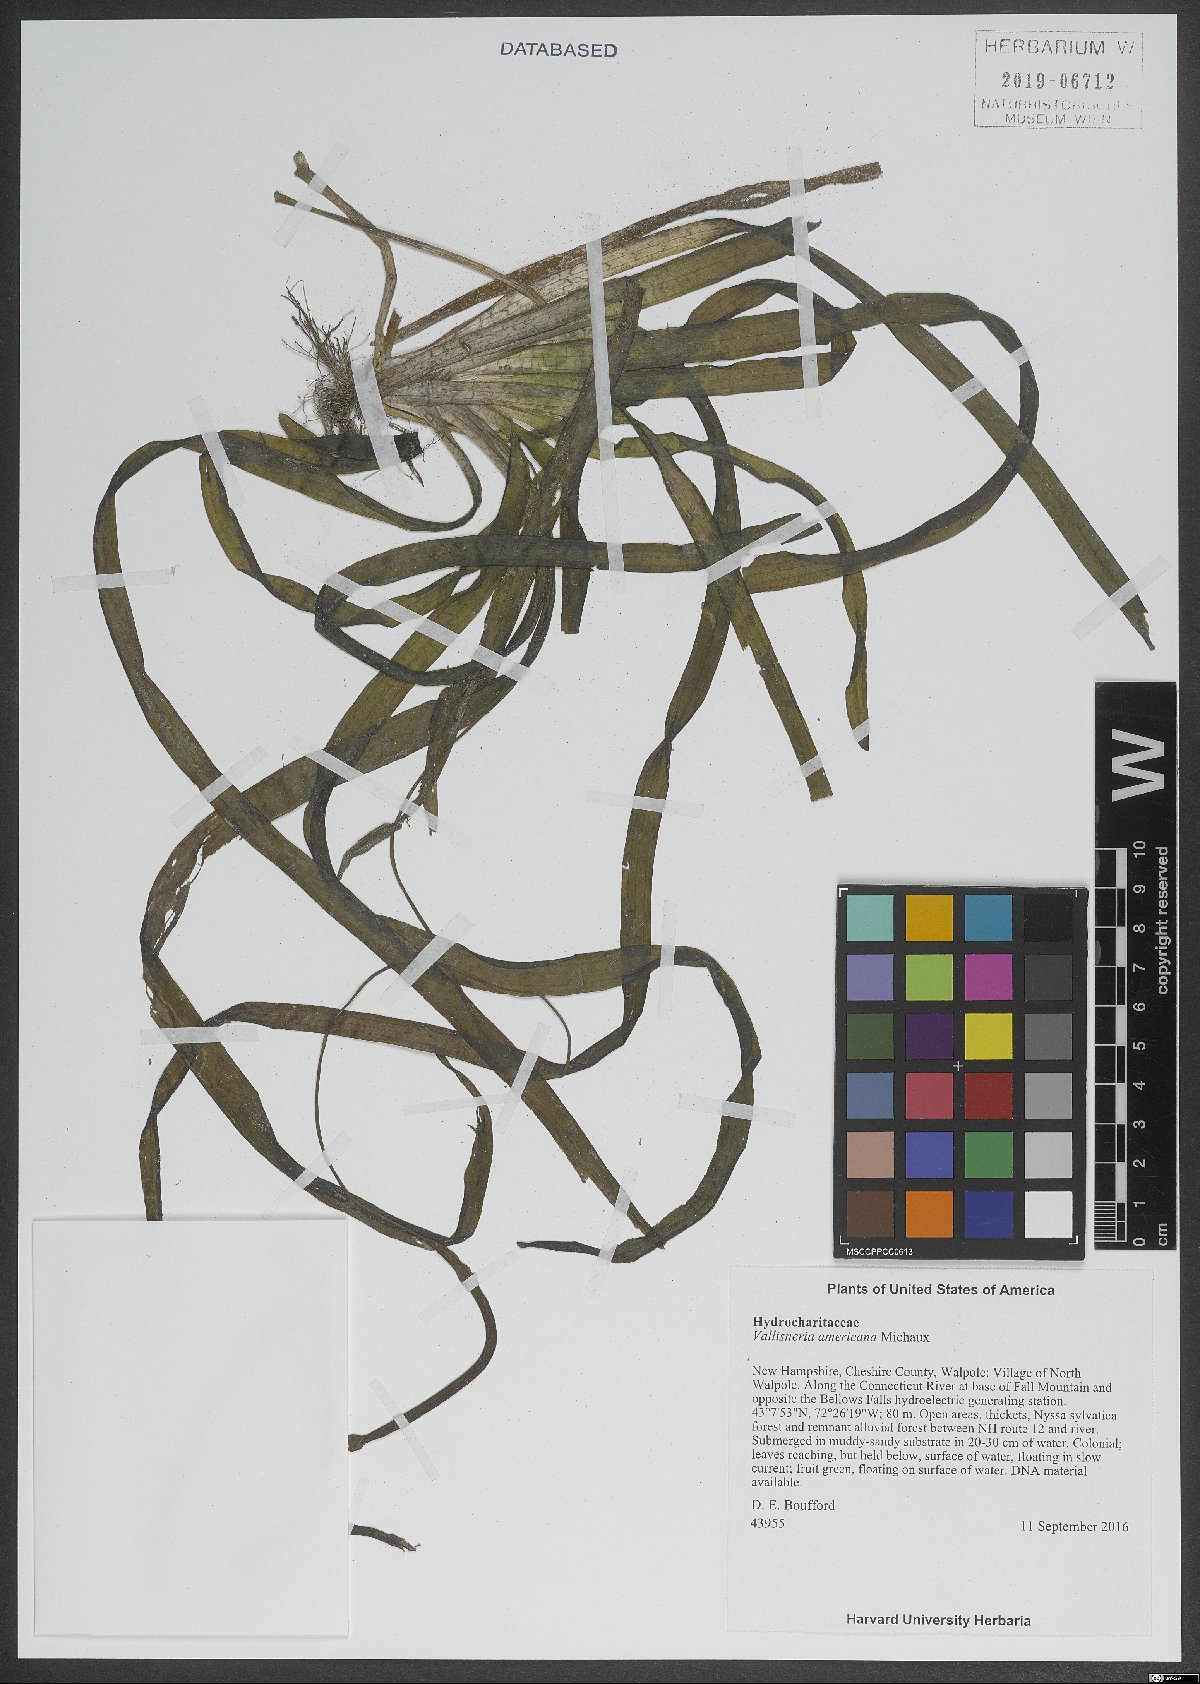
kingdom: Plantae
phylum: Tracheophyta
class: Liliopsida
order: Alismatales
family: Hydrocharitaceae
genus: Vallisneria
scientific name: Vallisneria americana
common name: American eelgrass
